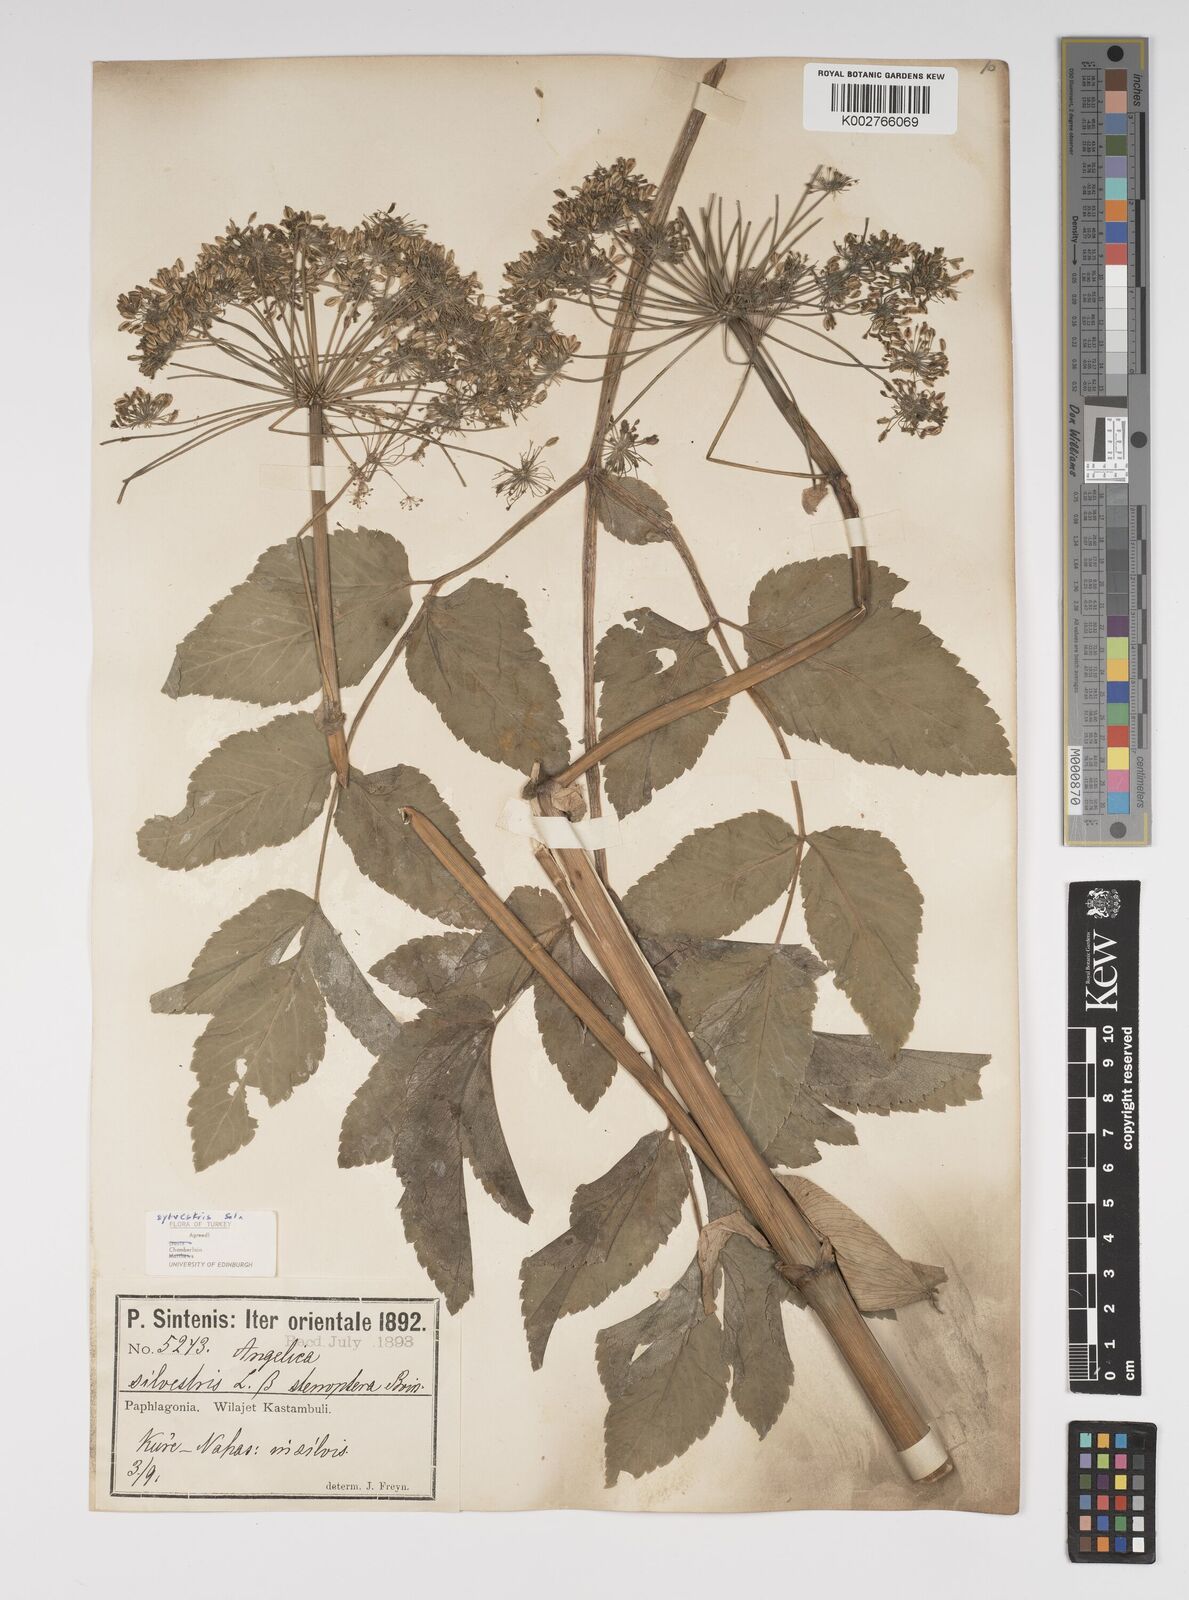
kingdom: Plantae
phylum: Tracheophyta
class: Magnoliopsida
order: Apiales
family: Apiaceae
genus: Angelica
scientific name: Angelica sylvestris
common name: Wild angelica
